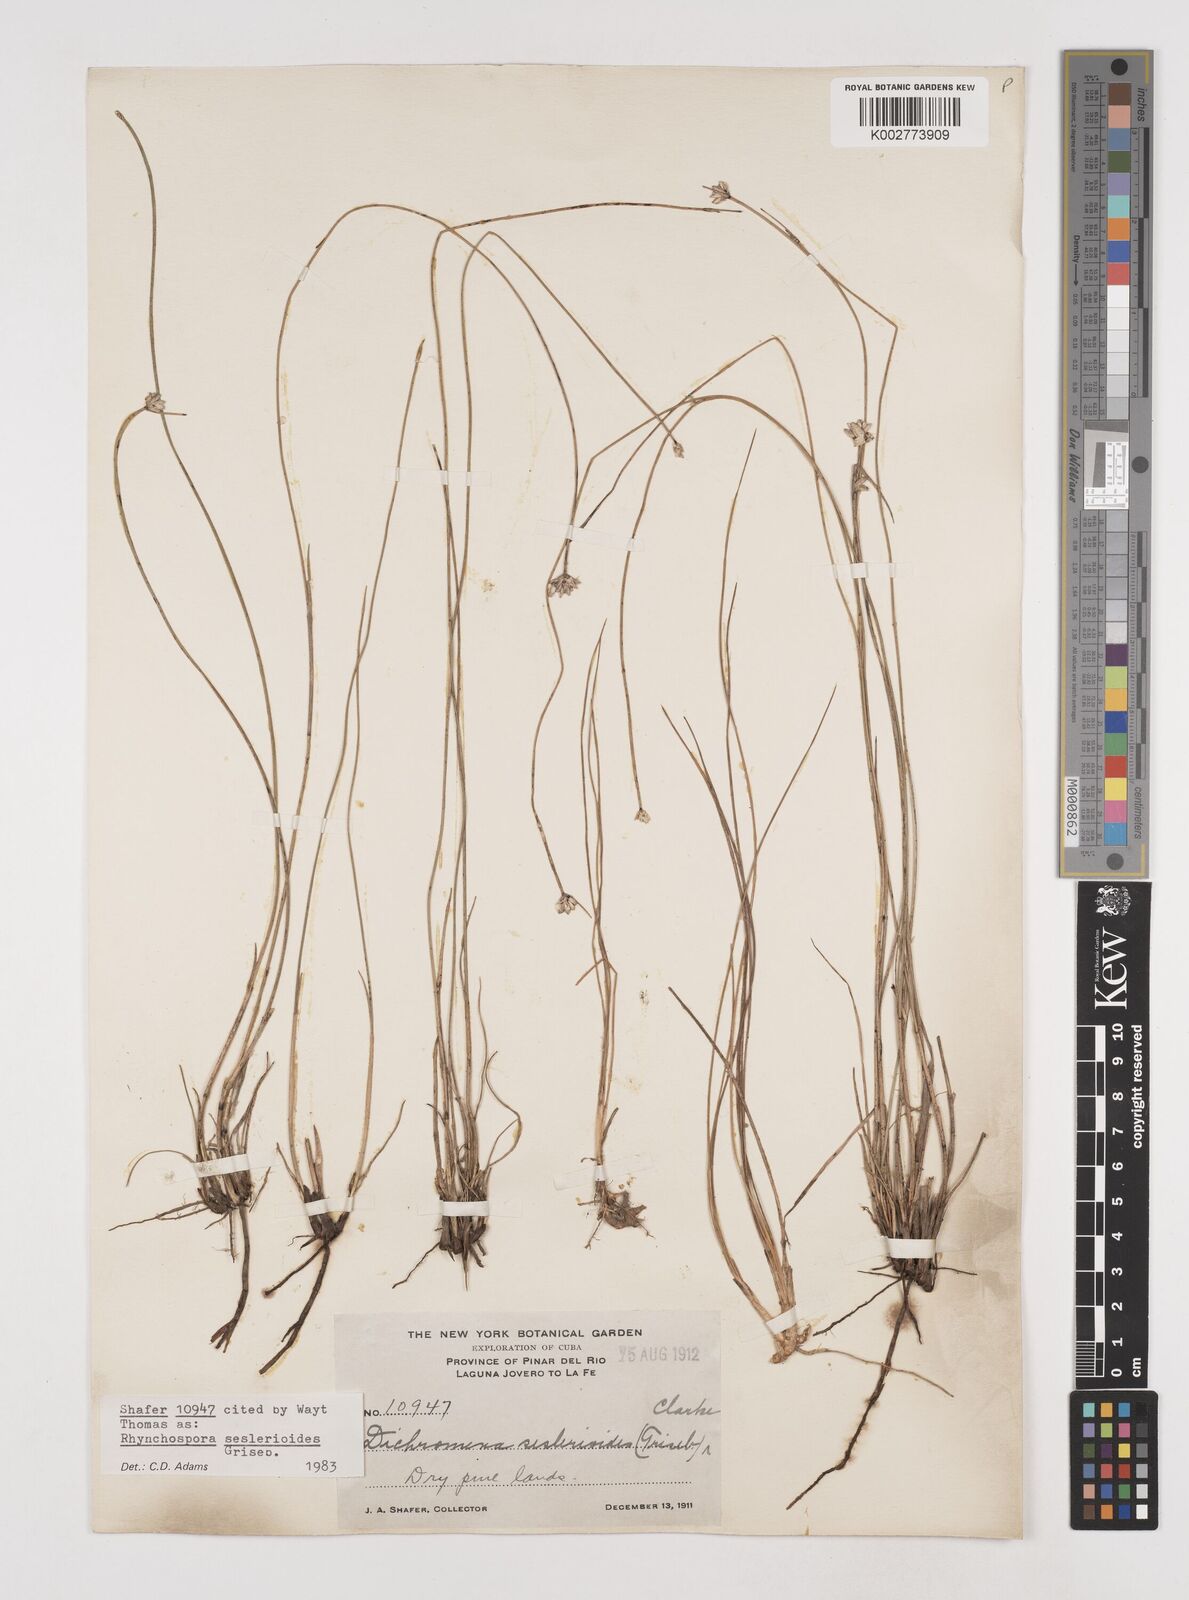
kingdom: Plantae
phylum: Tracheophyta
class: Liliopsida
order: Poales
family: Cyperaceae
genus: Rhynchospora
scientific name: Rhynchospora seslerioides
